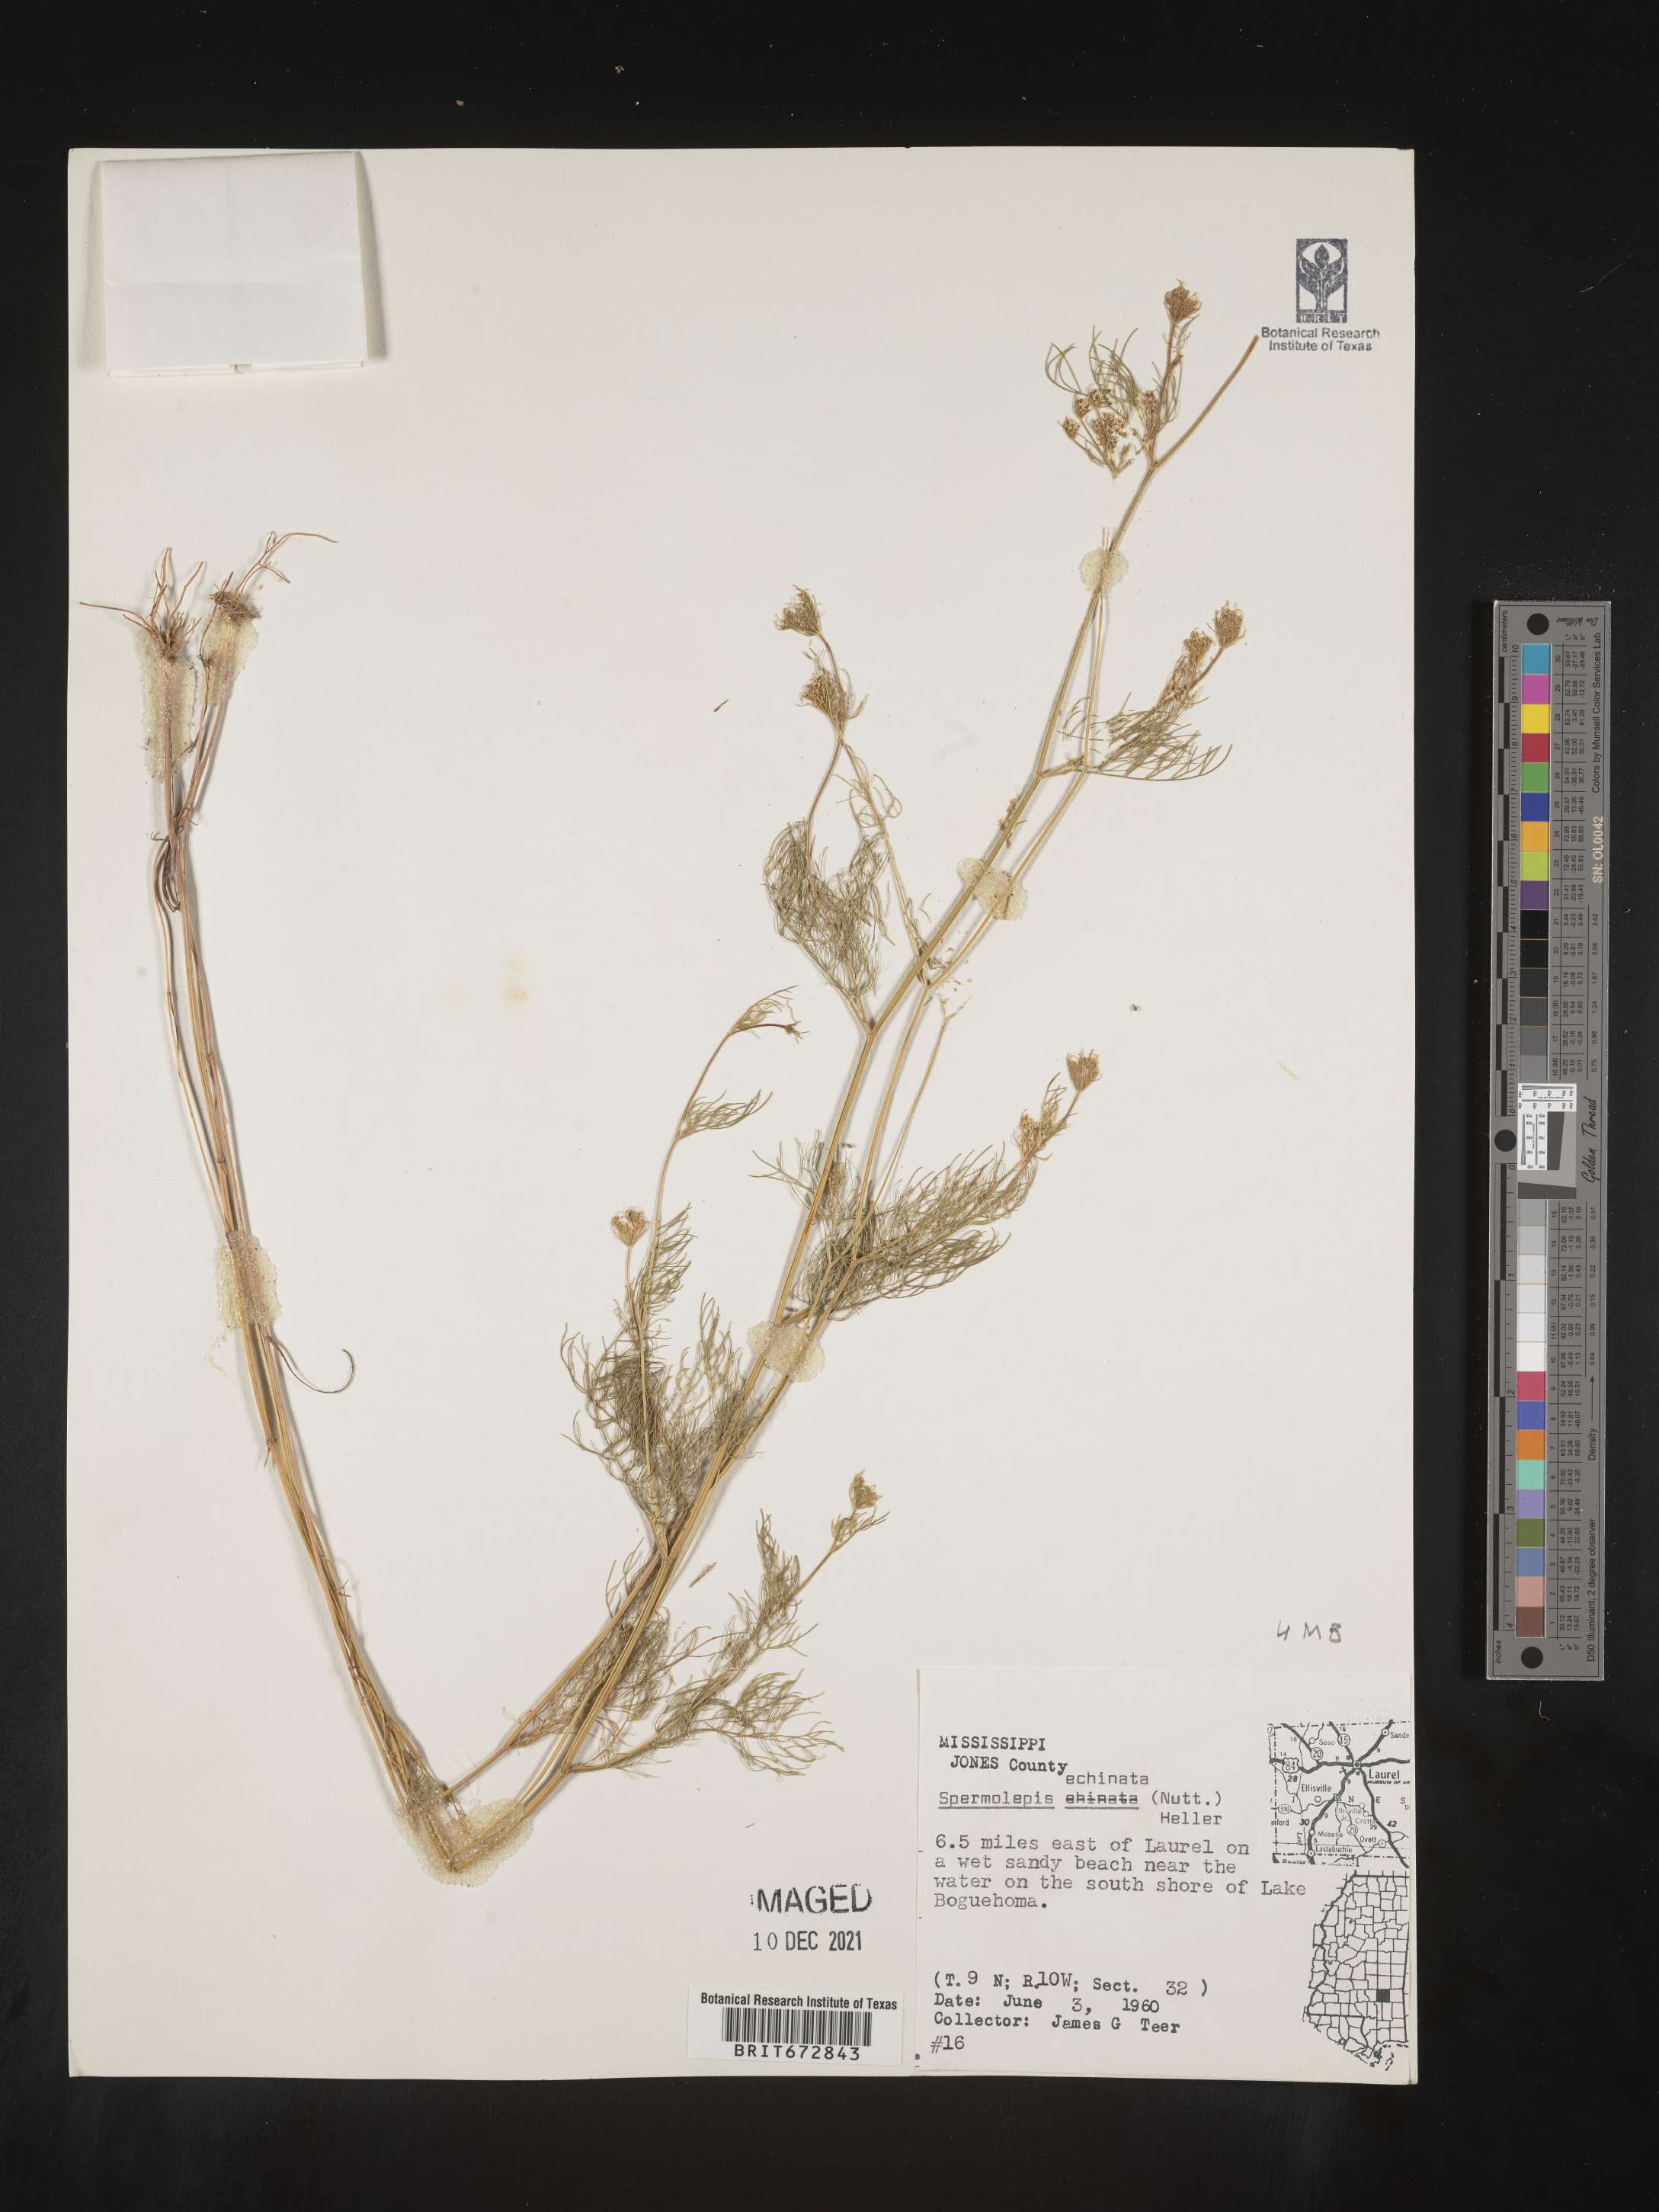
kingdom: Plantae
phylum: Tracheophyta
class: Magnoliopsida
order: Apiales
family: Apiaceae
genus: Spermolepis
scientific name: Spermolepis echinata
